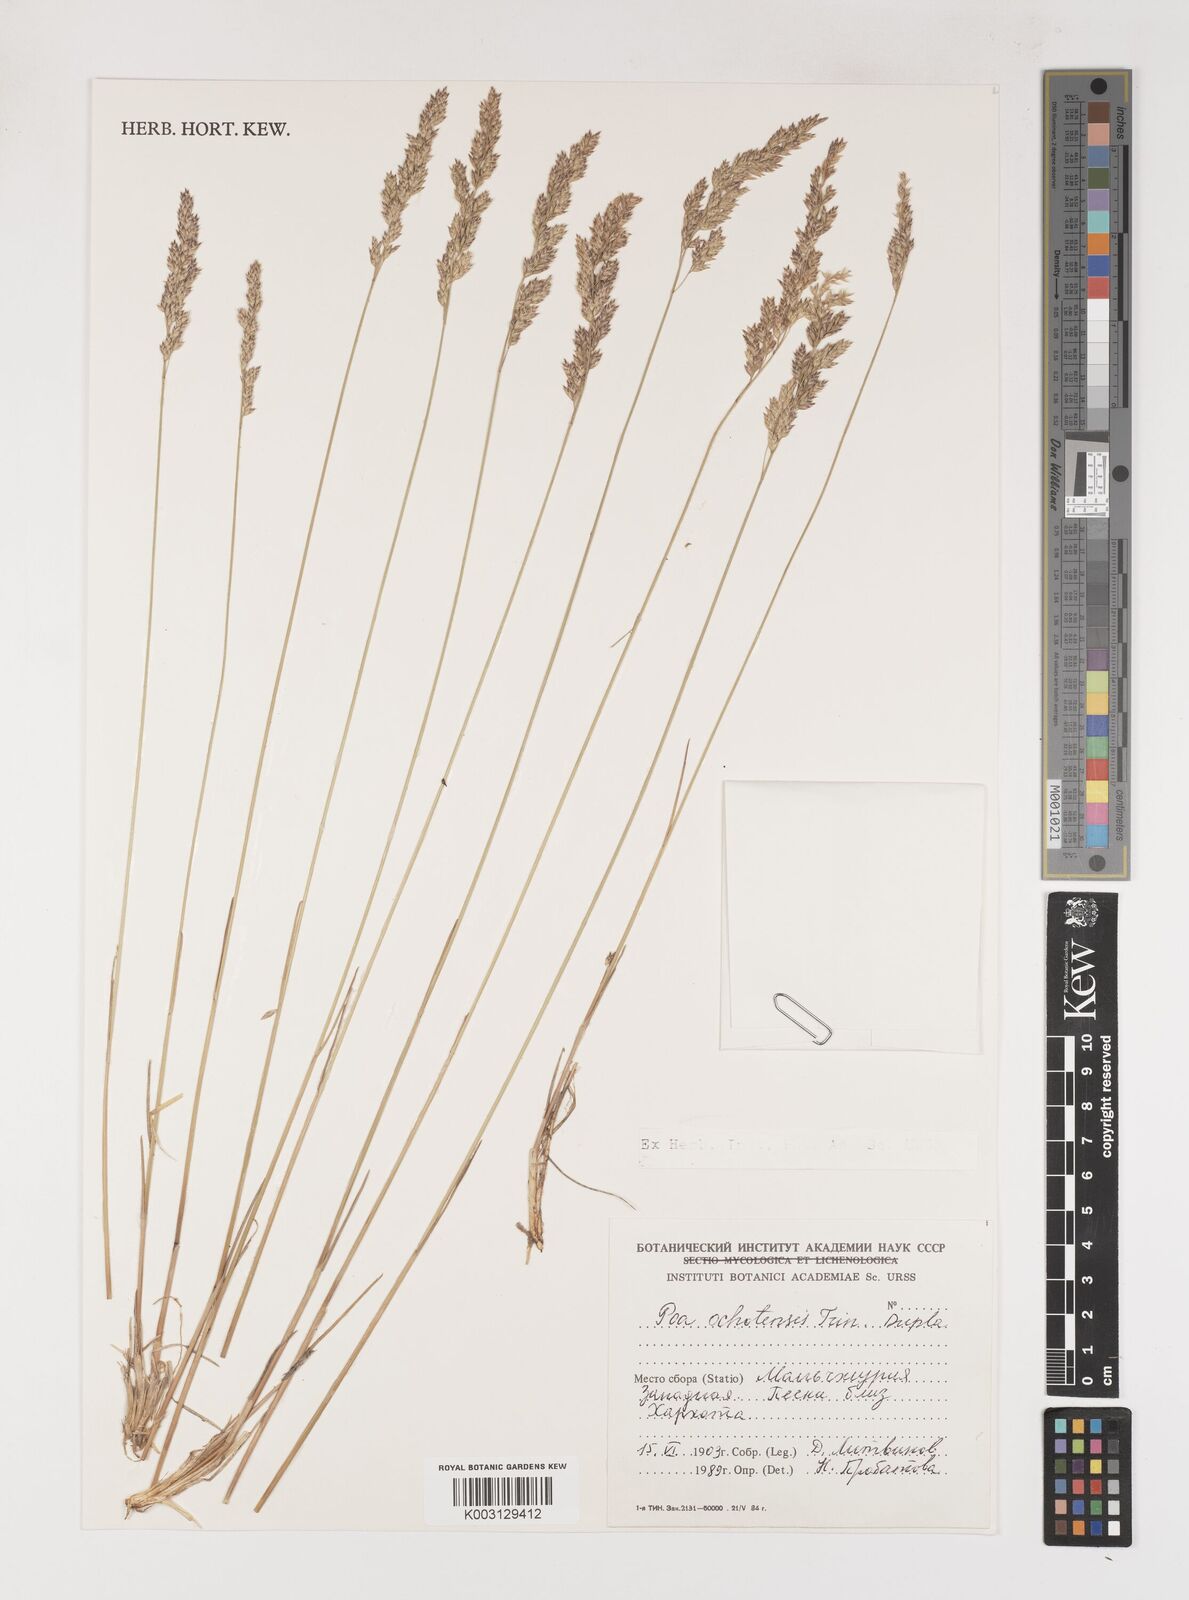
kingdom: Plantae
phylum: Tracheophyta
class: Liliopsida
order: Poales
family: Poaceae
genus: Poa
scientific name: Poa versicolor
